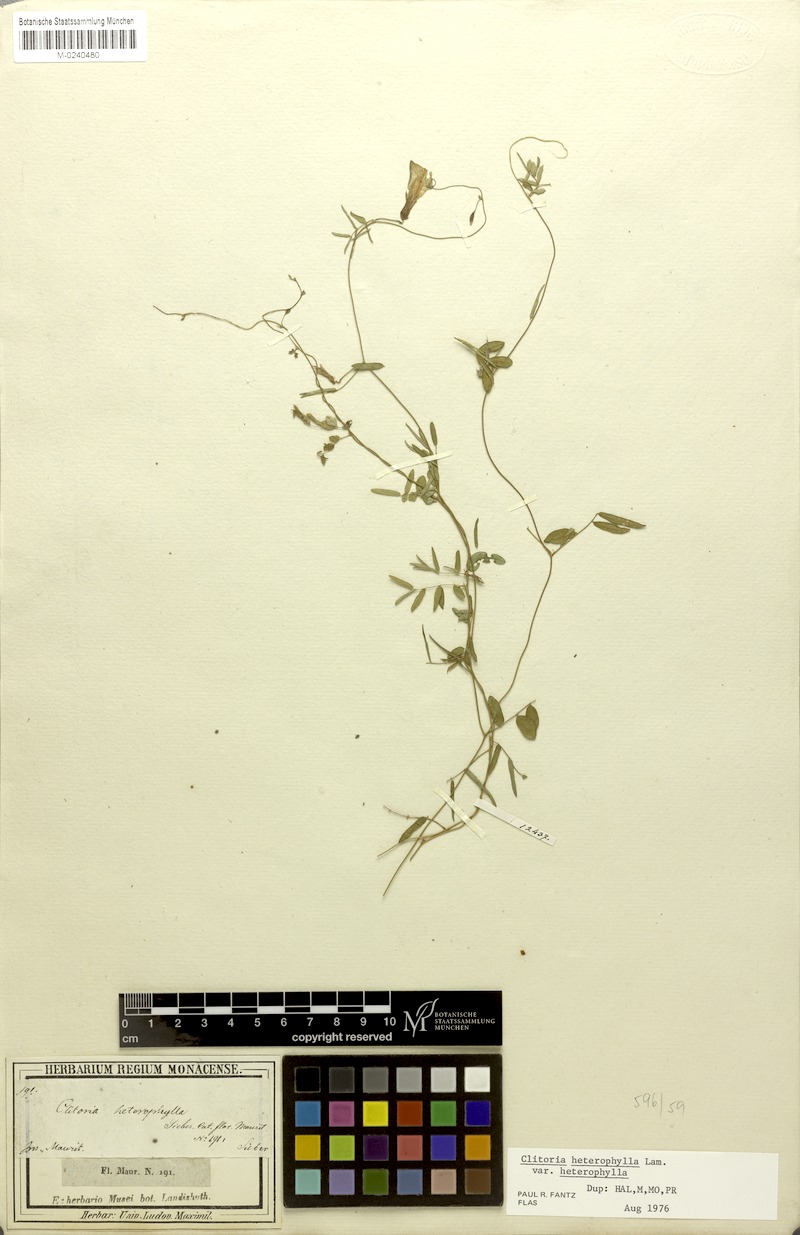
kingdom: Plantae
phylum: Tracheophyta
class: Magnoliopsida
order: Fabales
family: Fabaceae
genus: Clitoria
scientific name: Clitoria heterophylla
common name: Pigeonwings
